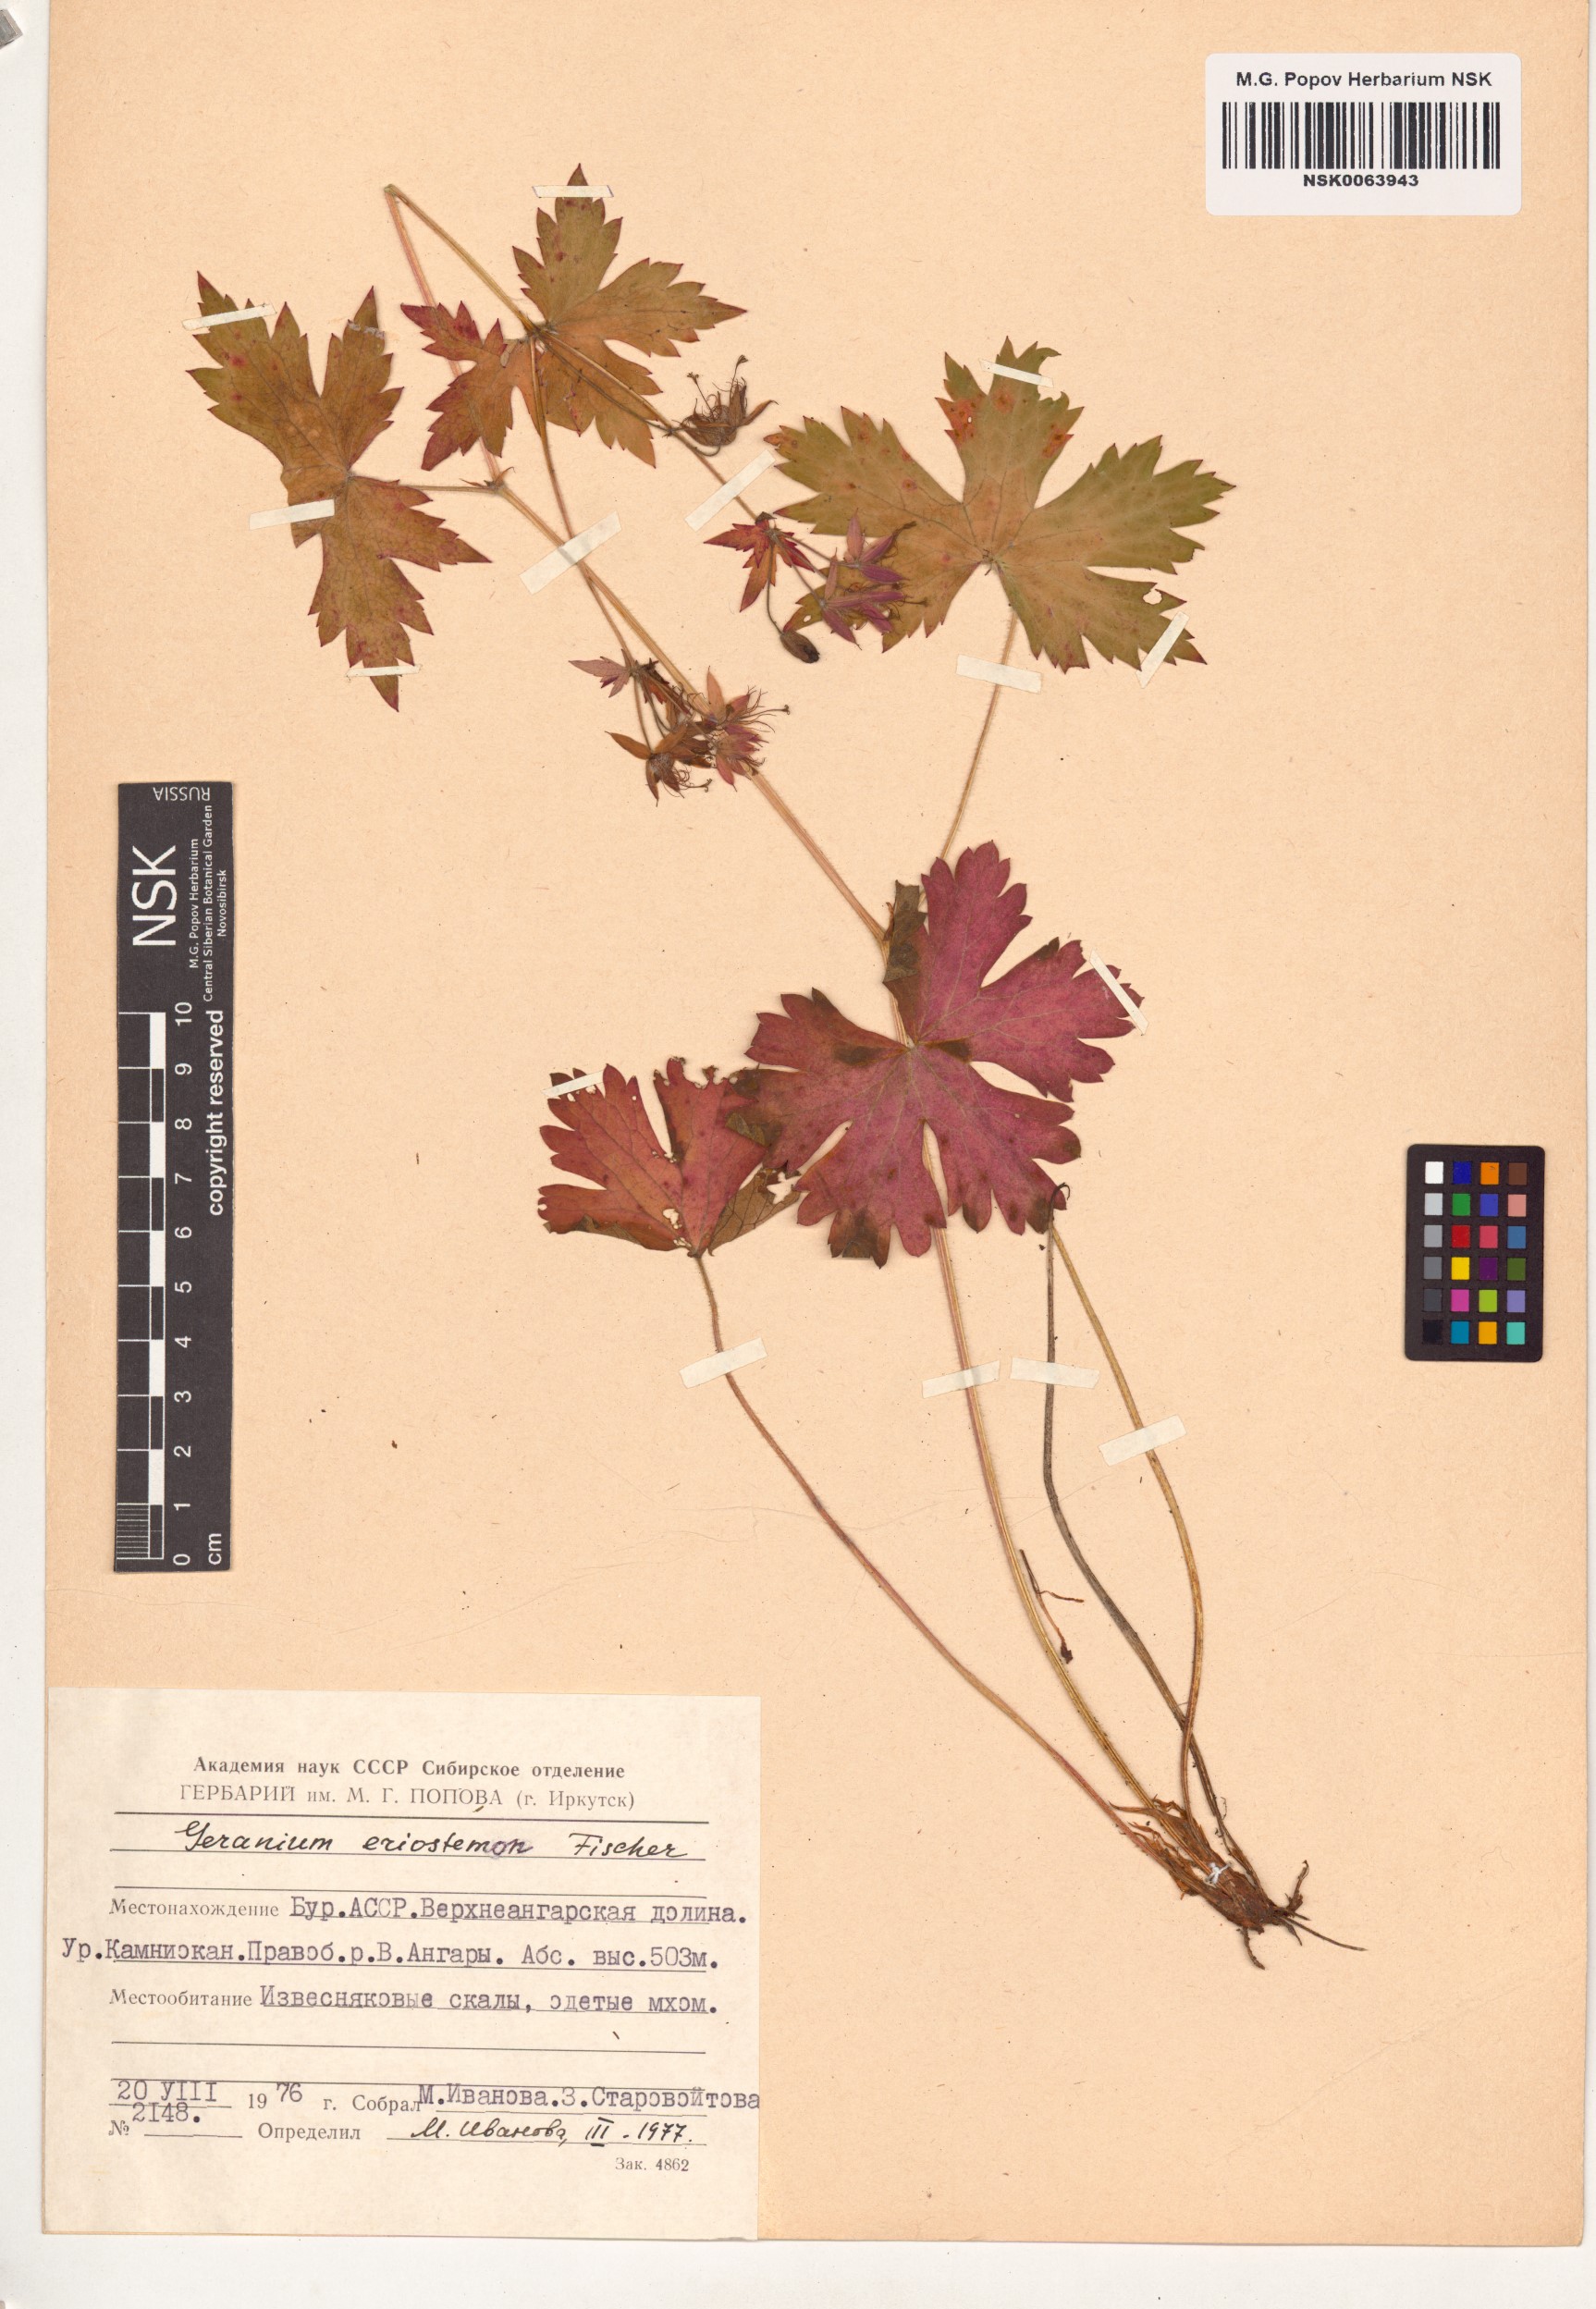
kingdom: Plantae
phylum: Tracheophyta
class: Magnoliopsida
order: Geraniales
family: Geraniaceae
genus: Geranium
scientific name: Geranium platyanthum
